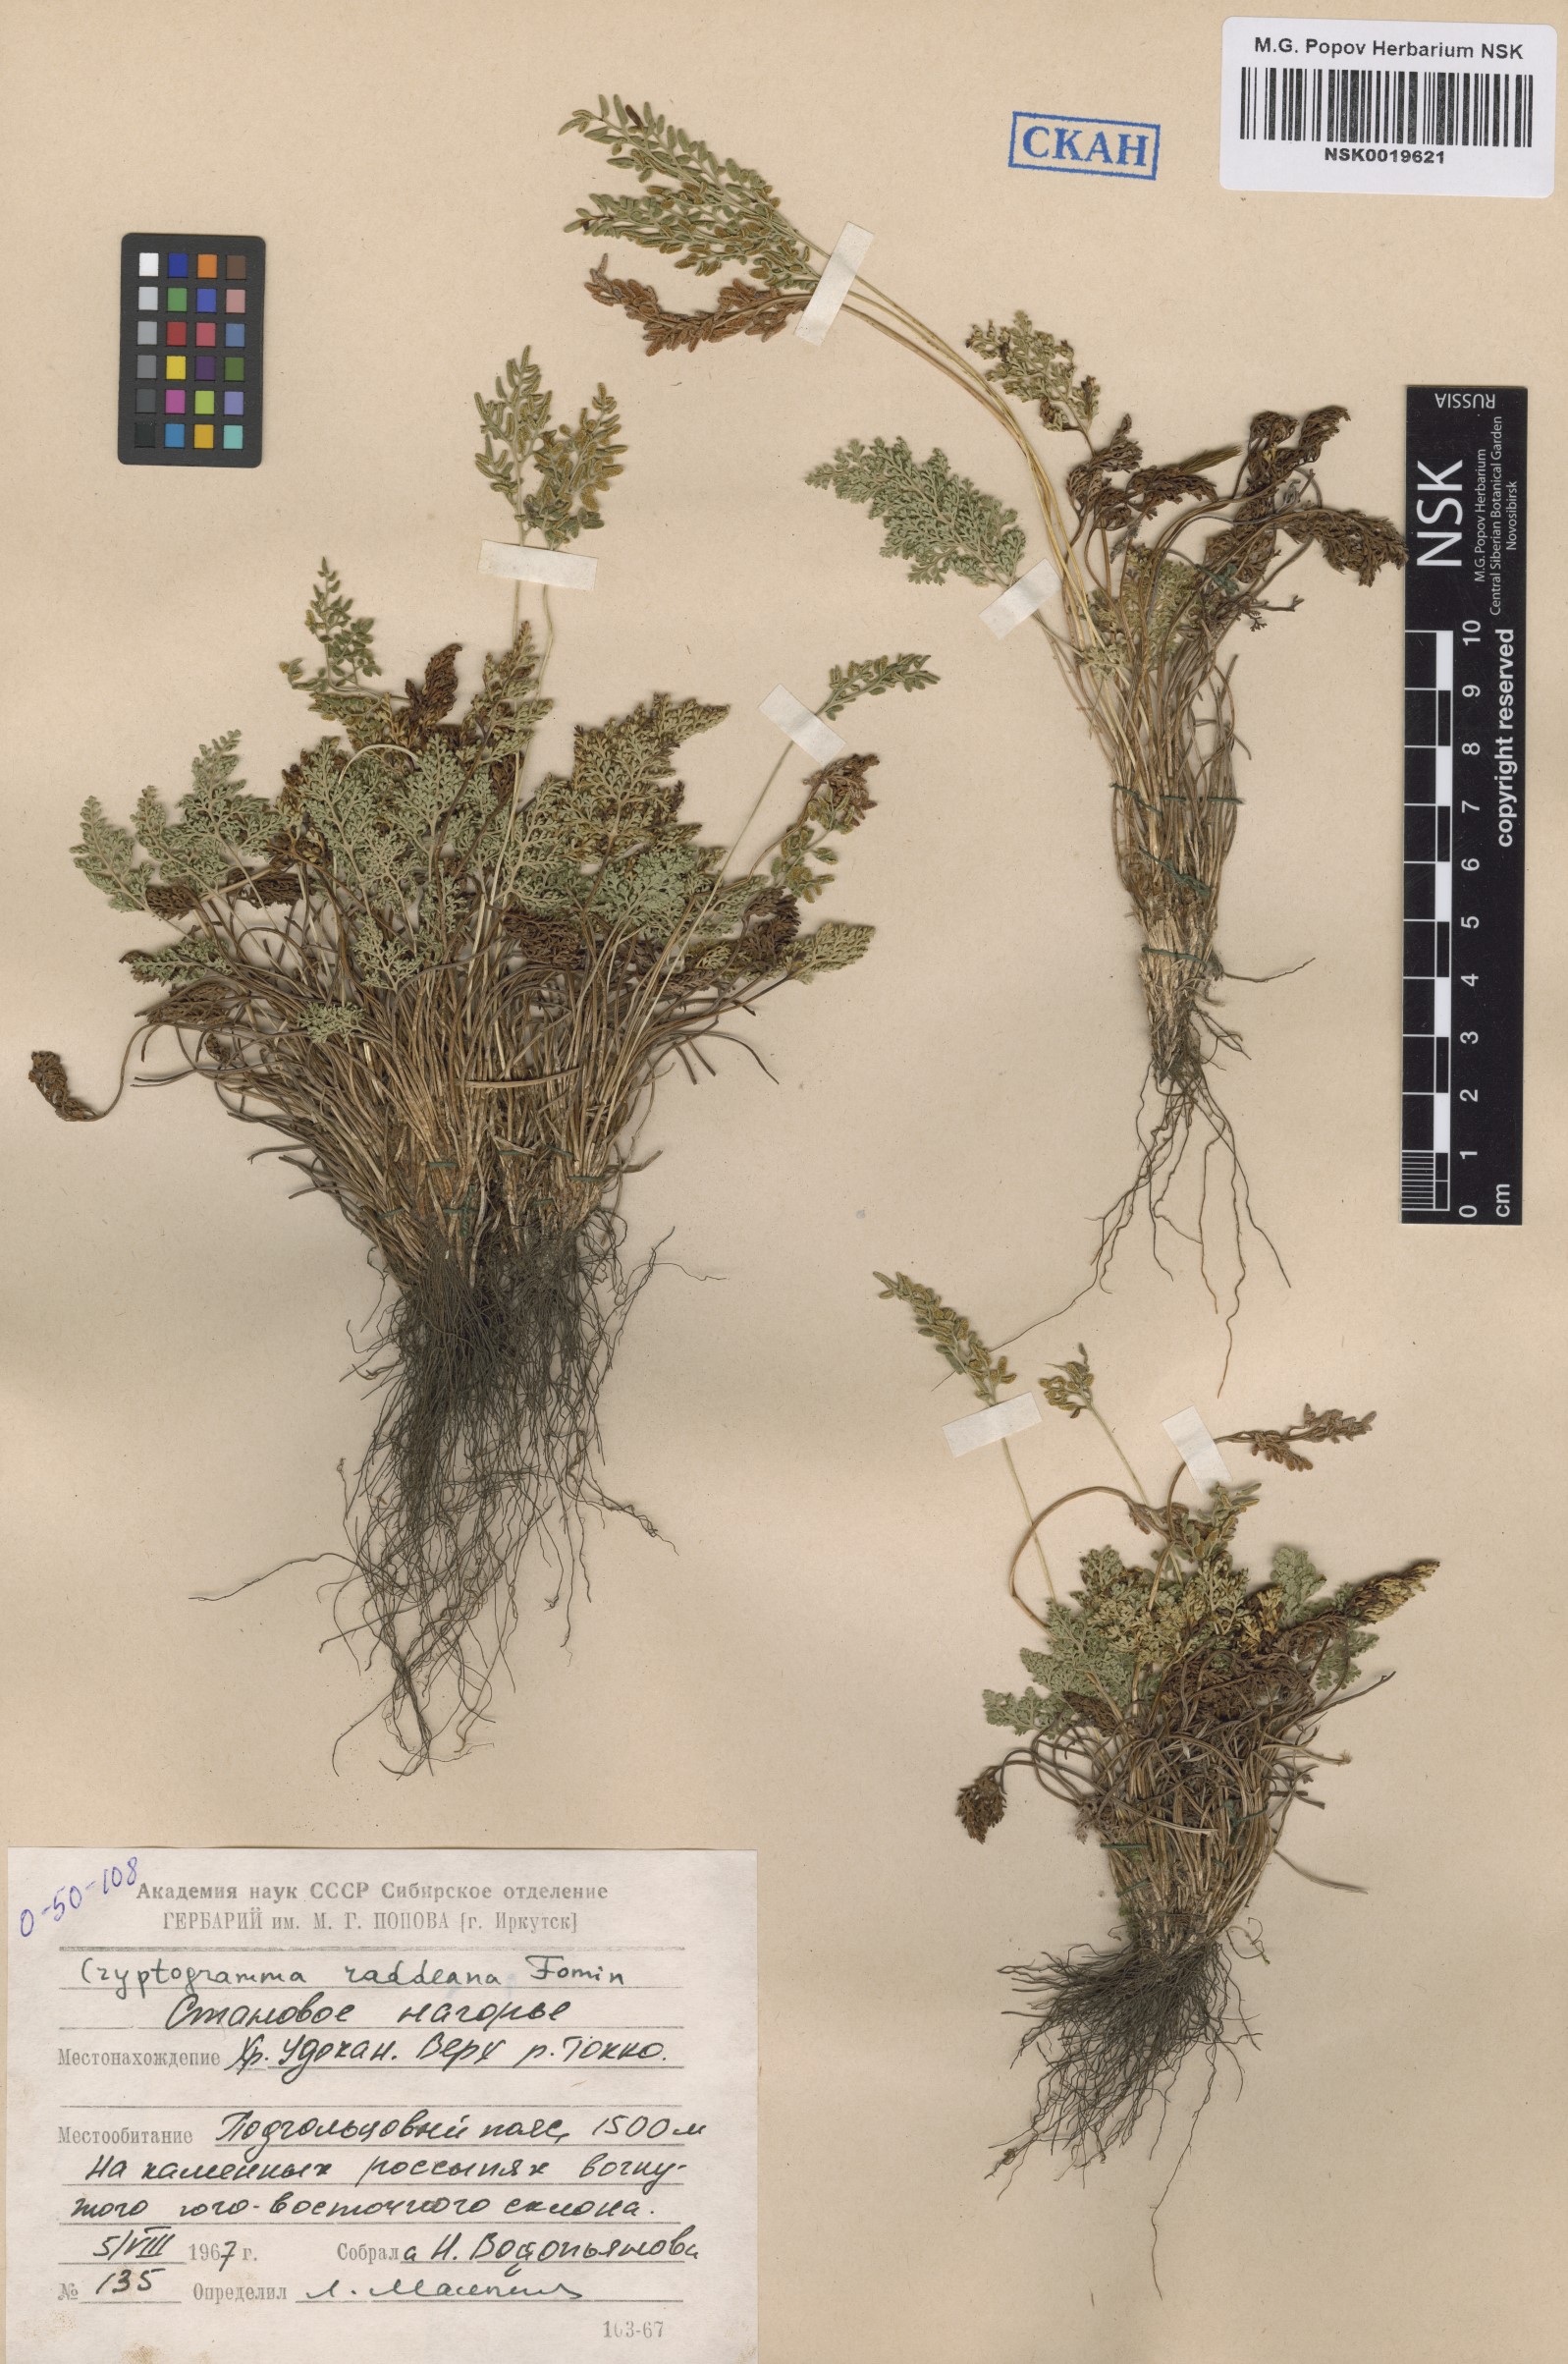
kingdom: Plantae
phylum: Tracheophyta
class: Polypodiopsida
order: Polypodiales
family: Pteridaceae
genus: Cryptogramma
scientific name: Cryptogramma brunoniana
